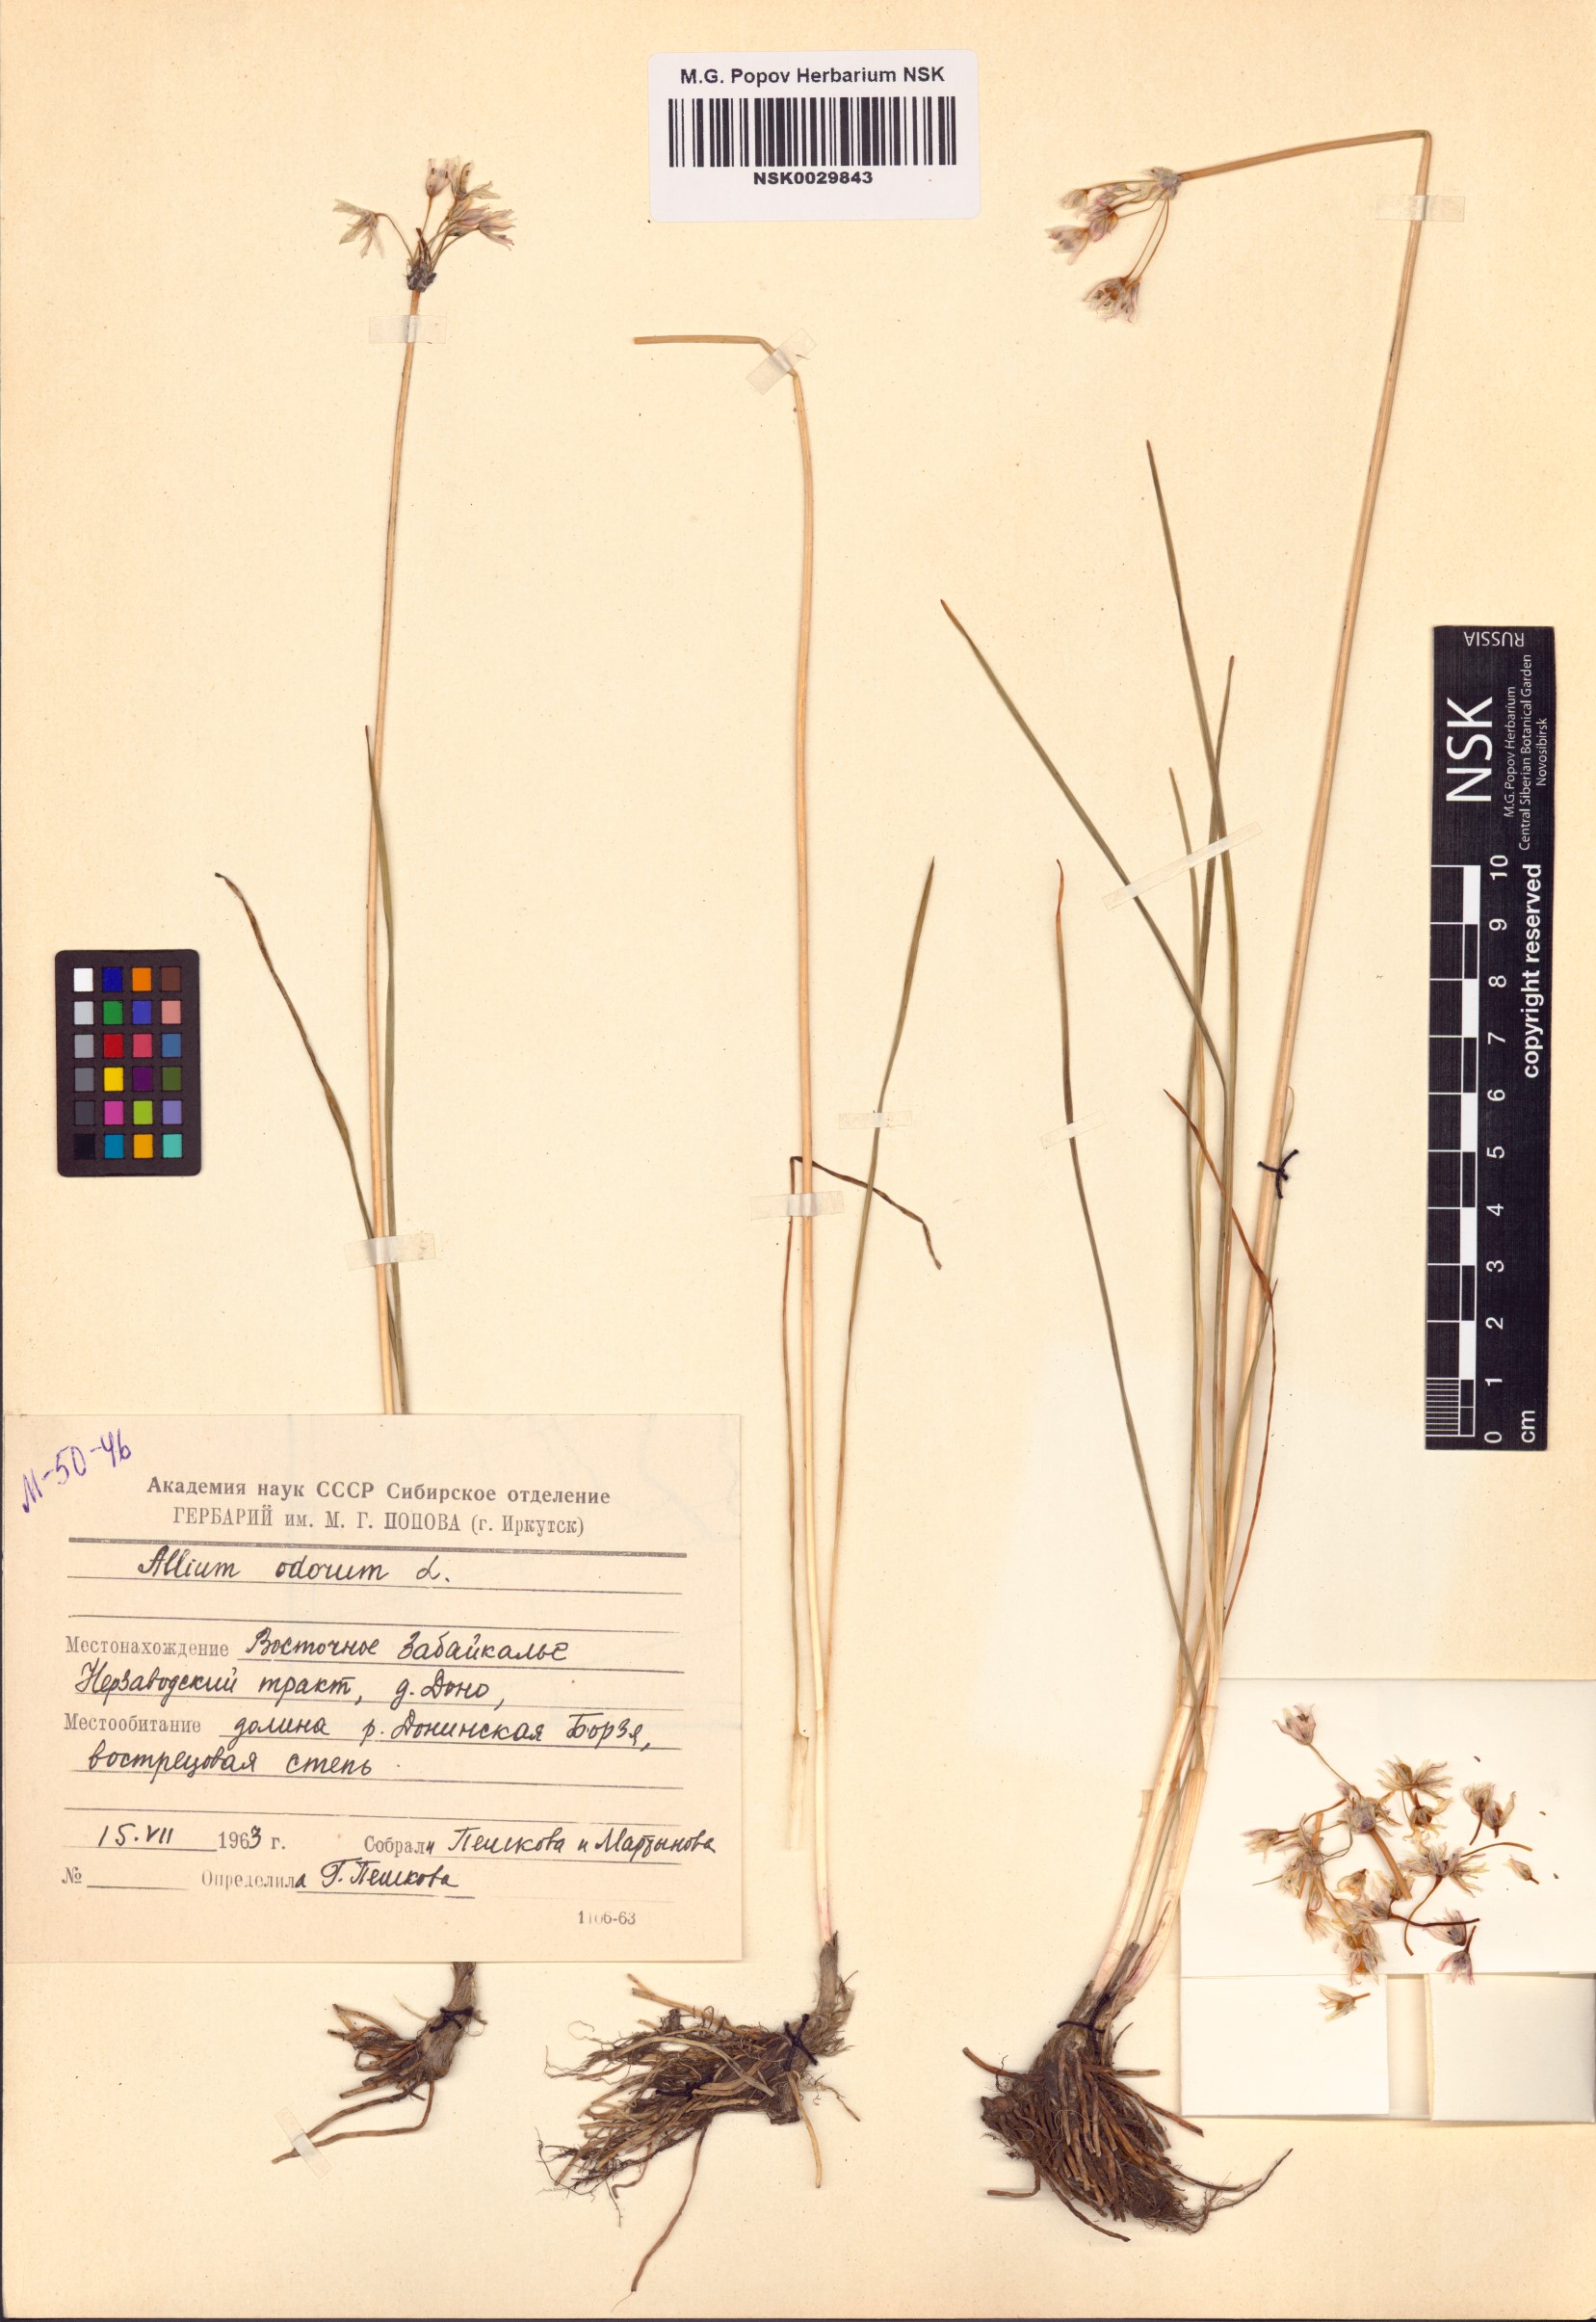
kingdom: Plantae
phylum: Tracheophyta
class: Liliopsida
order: Asparagales
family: Amaryllidaceae
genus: Allium
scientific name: Allium ramosum
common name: Fragrant garlic
